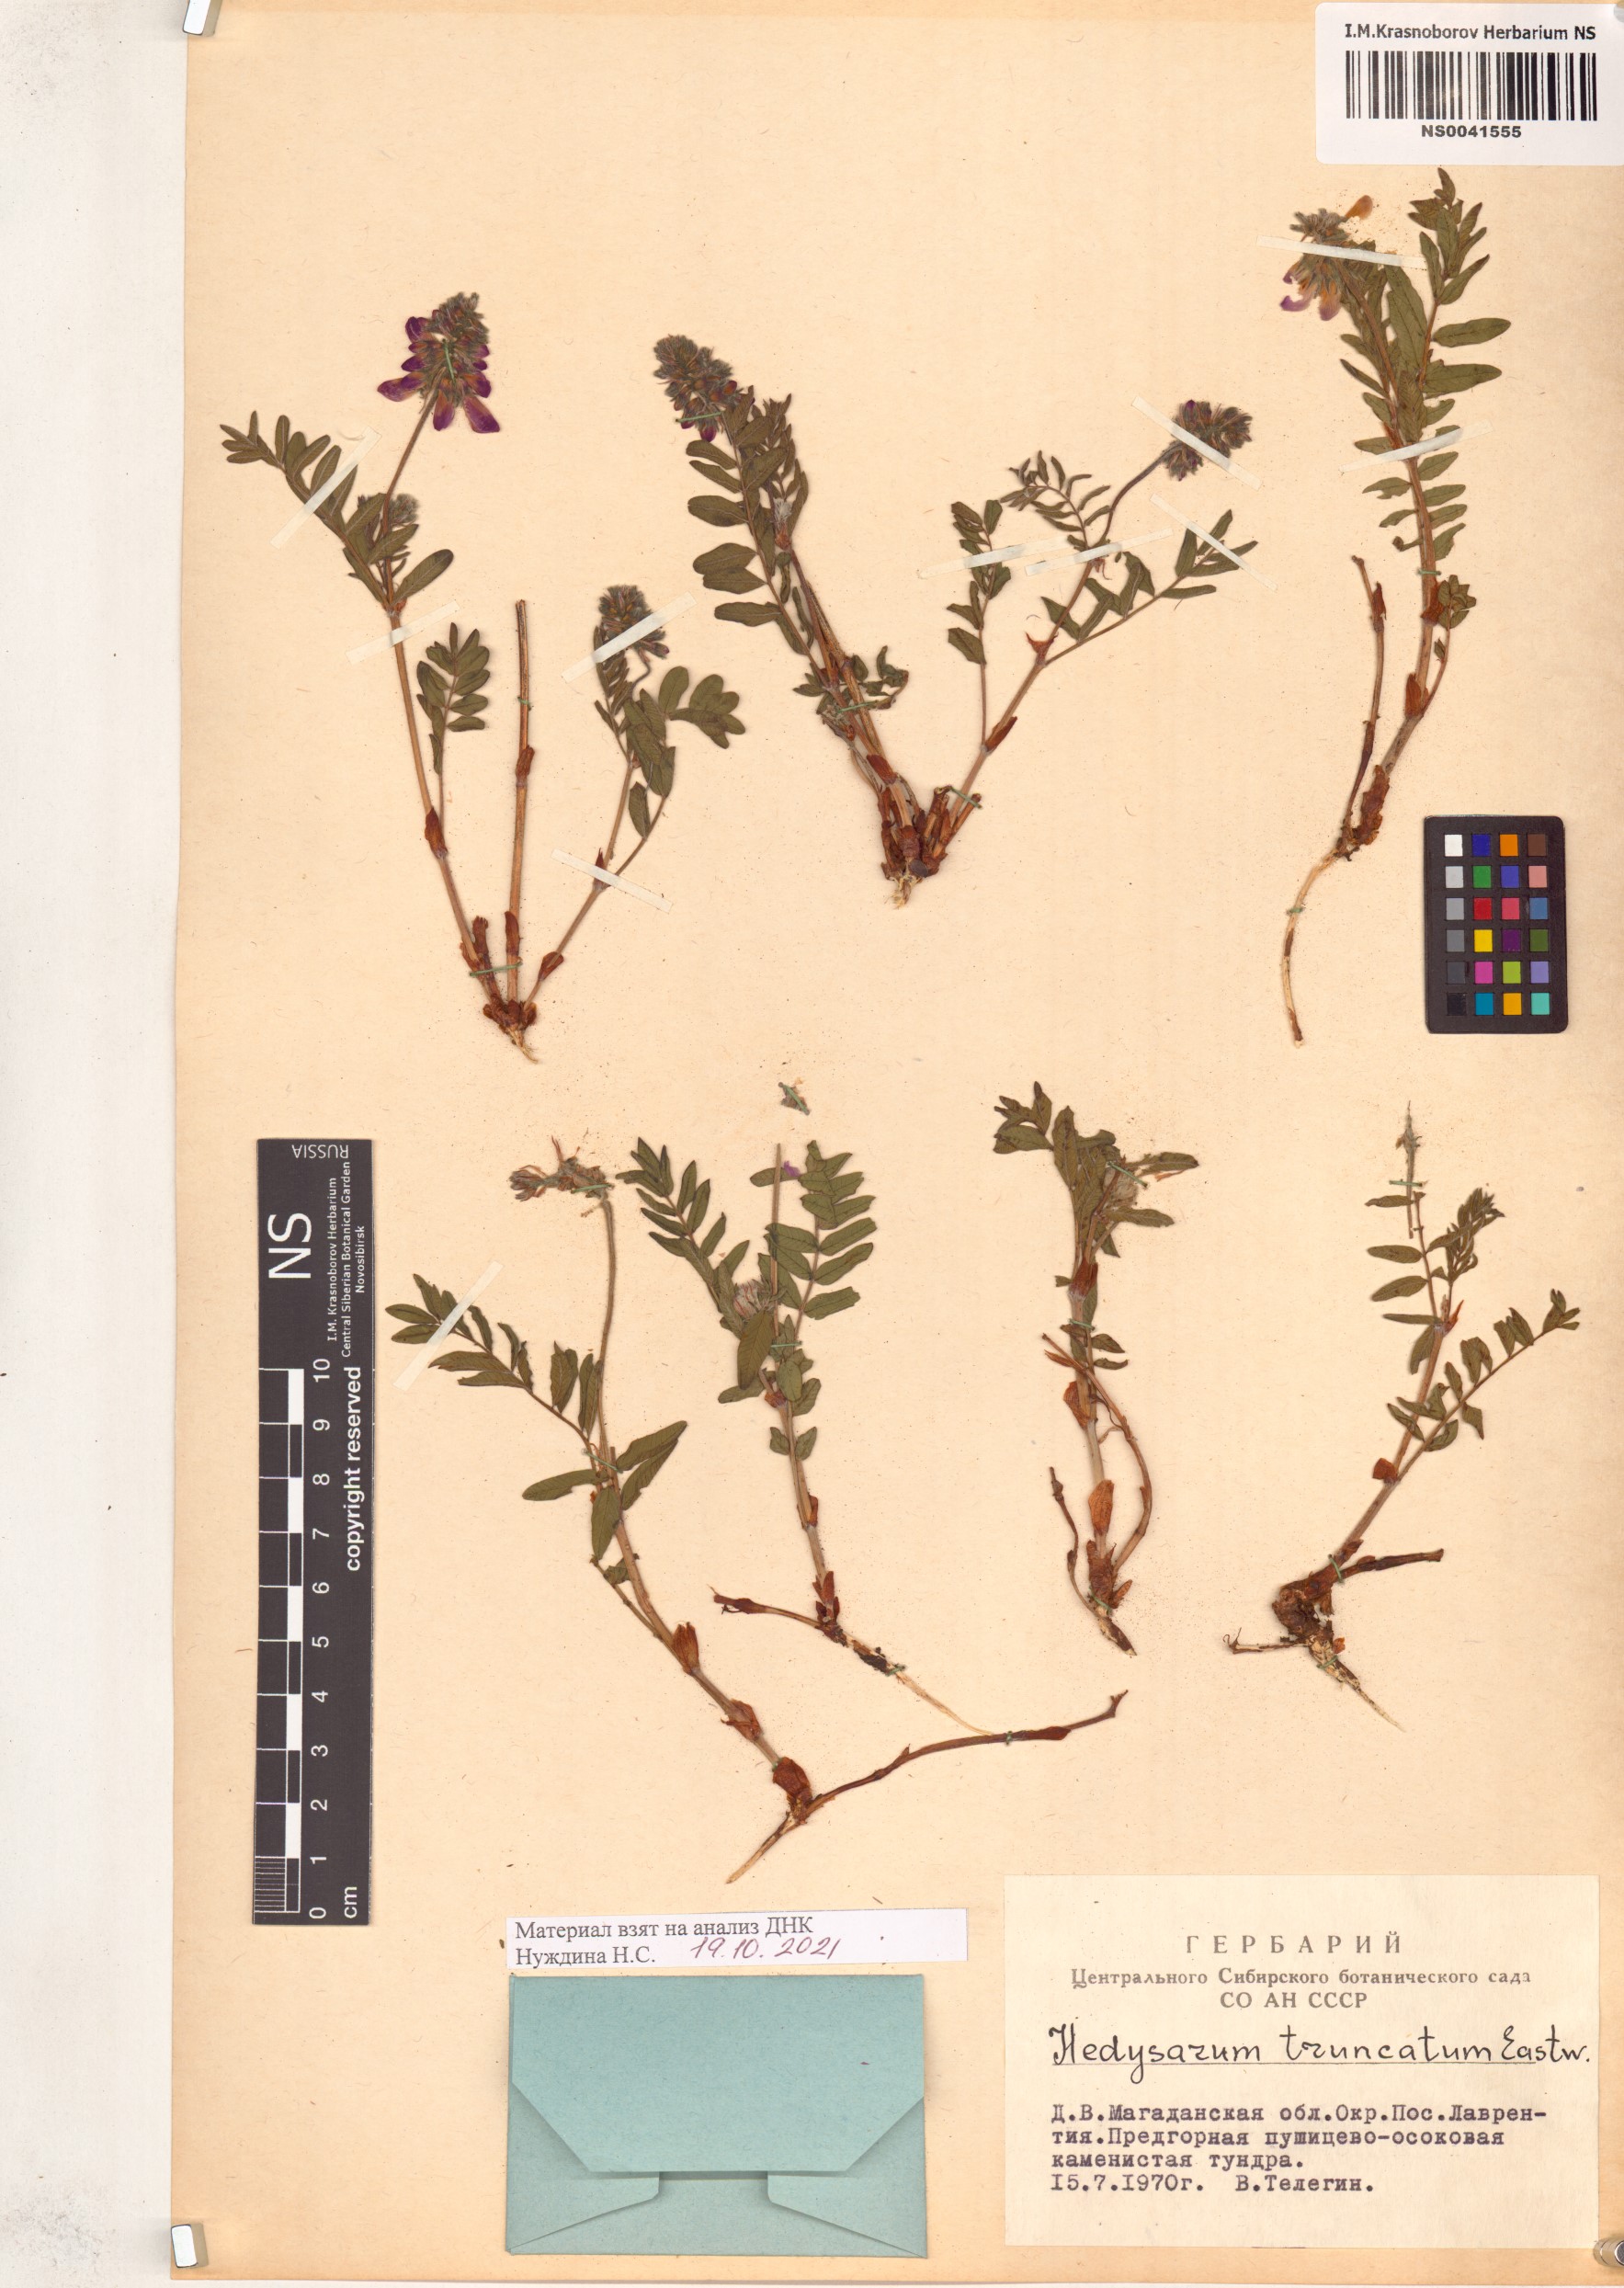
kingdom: Plantae
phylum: Tracheophyta
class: Magnoliopsida
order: Fabales
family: Fabaceae
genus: Hedysarum
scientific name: Hedysarum truncatum
